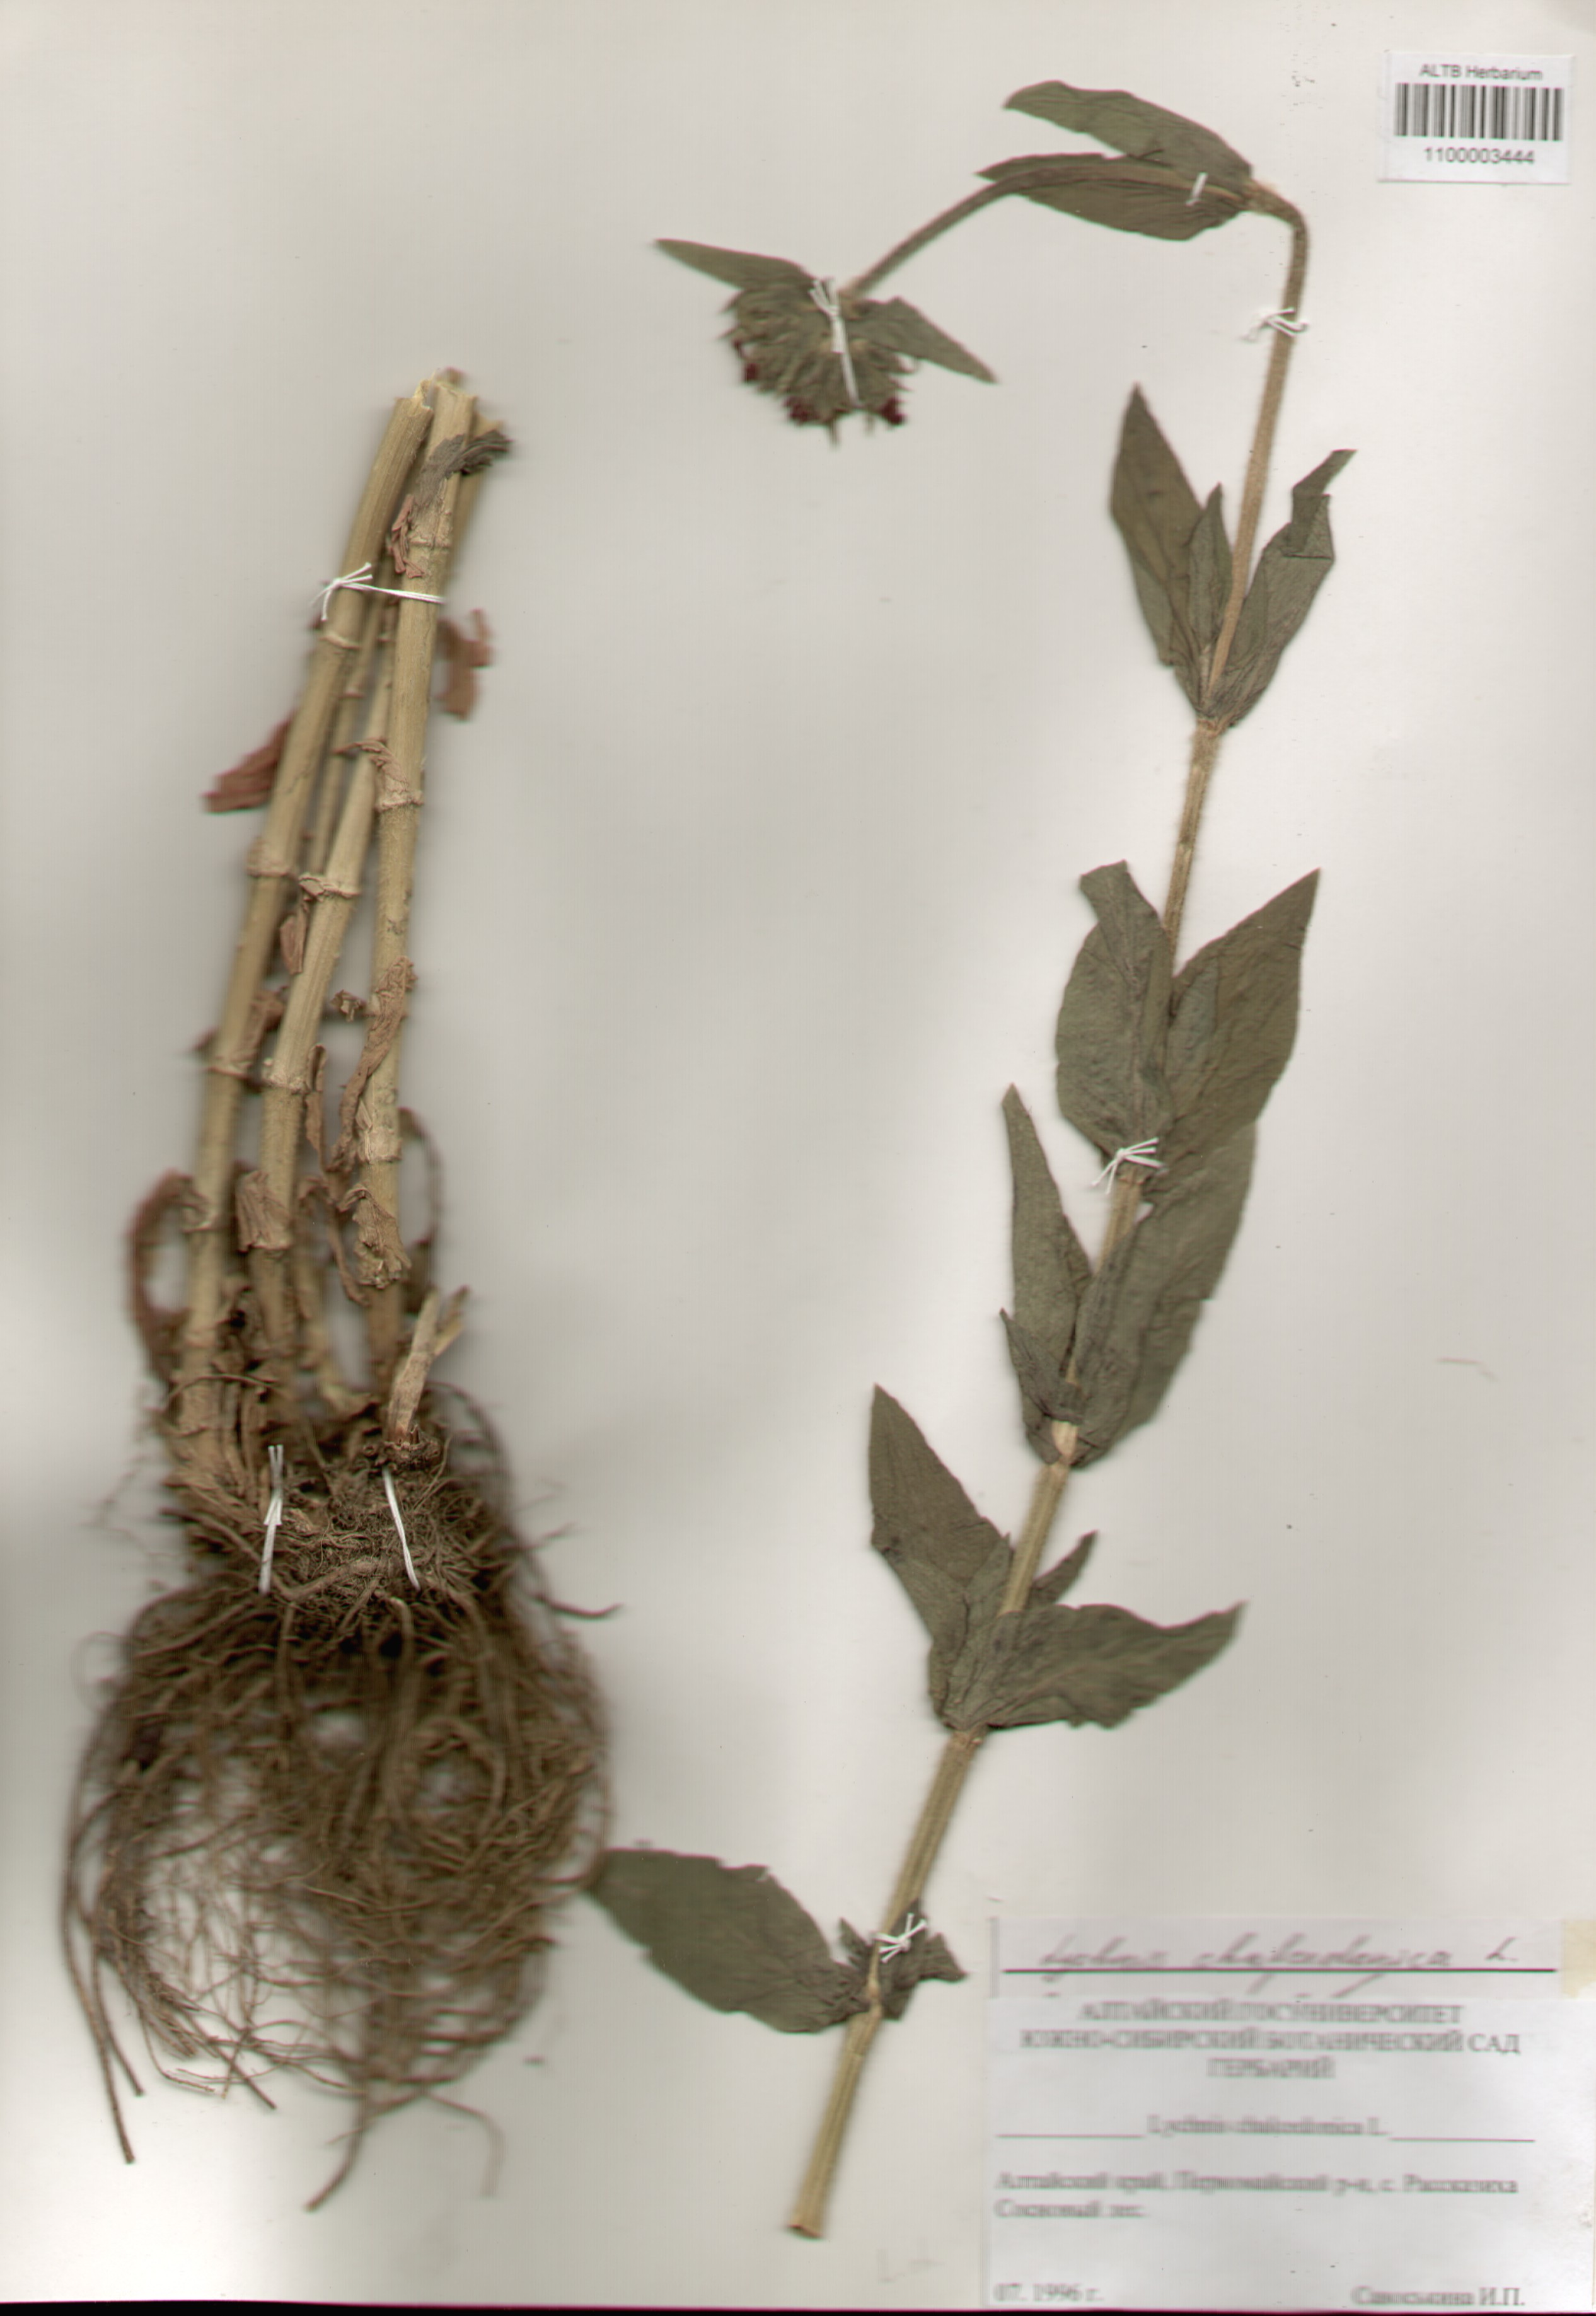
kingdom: Plantae
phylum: Tracheophyta
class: Magnoliopsida
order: Caryophyllales
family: Caryophyllaceae
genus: Silene
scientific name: Silene chalcedonica
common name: Maltese-cross
